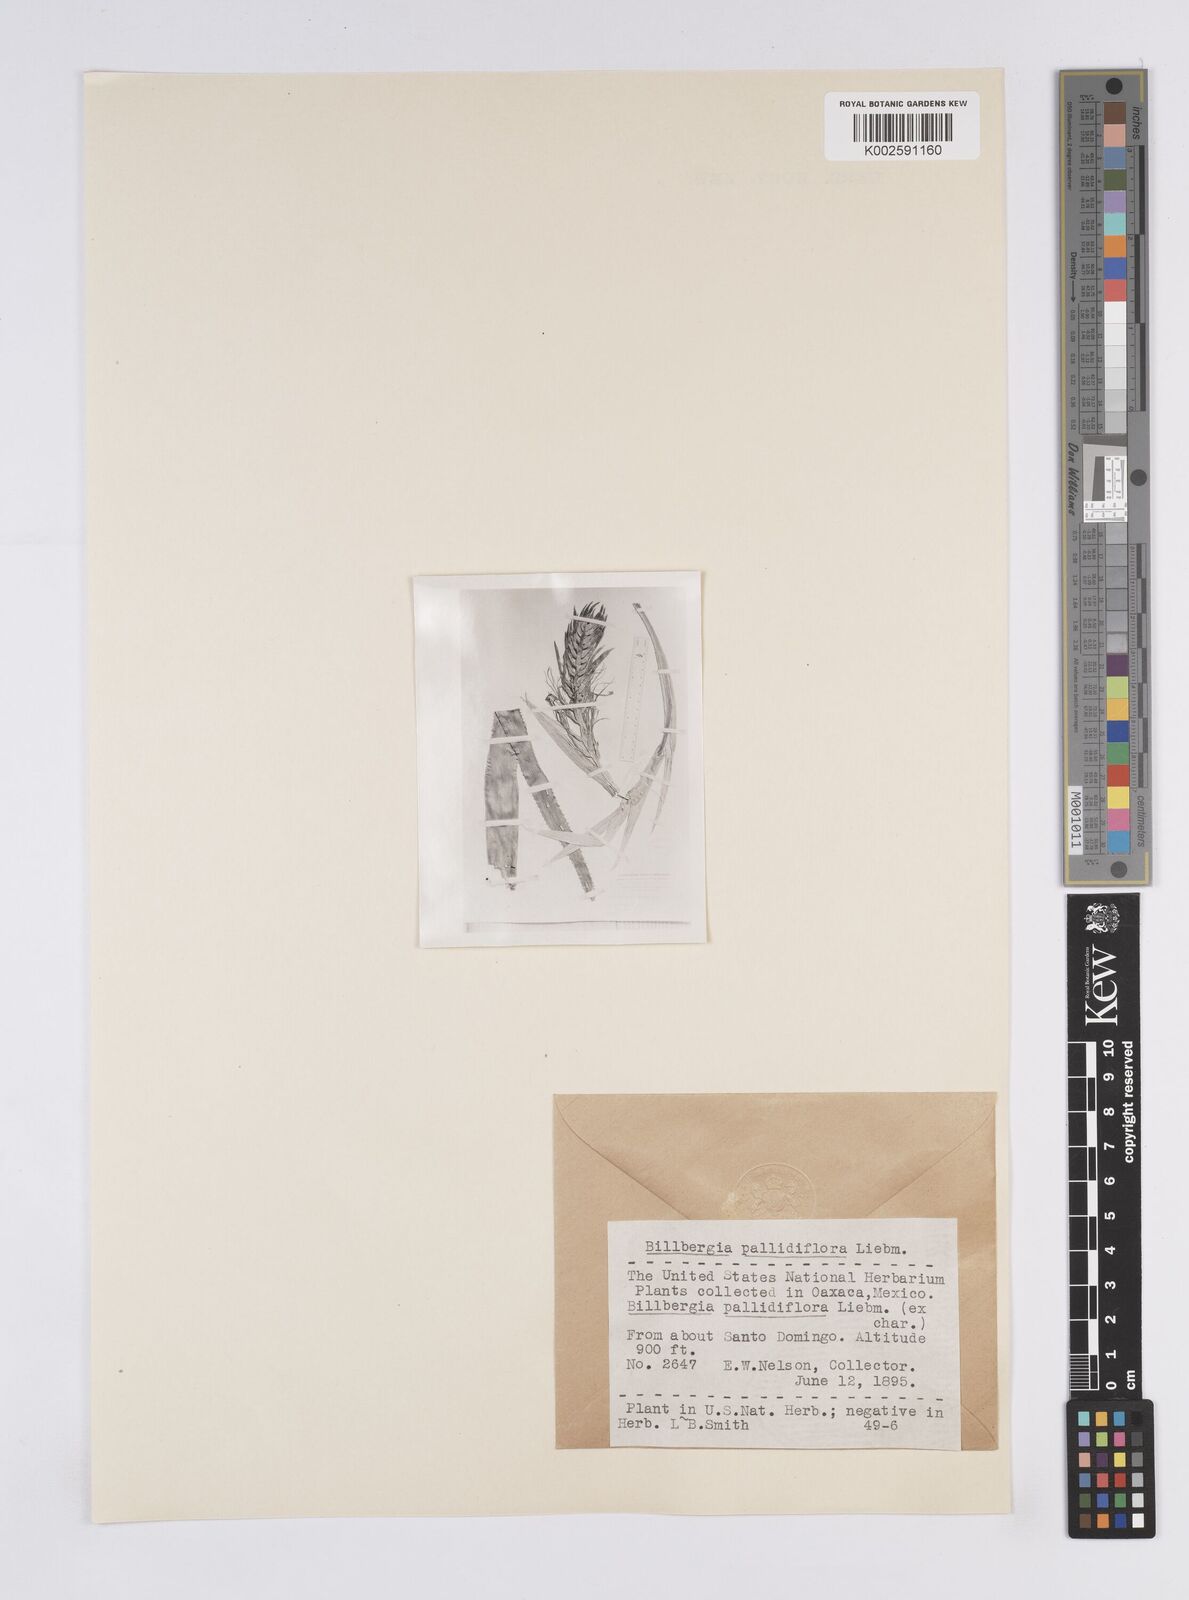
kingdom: Plantae
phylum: Tracheophyta
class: Liliopsida
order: Poales
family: Bromeliaceae
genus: Billbergia
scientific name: Billbergia pallidiflora
